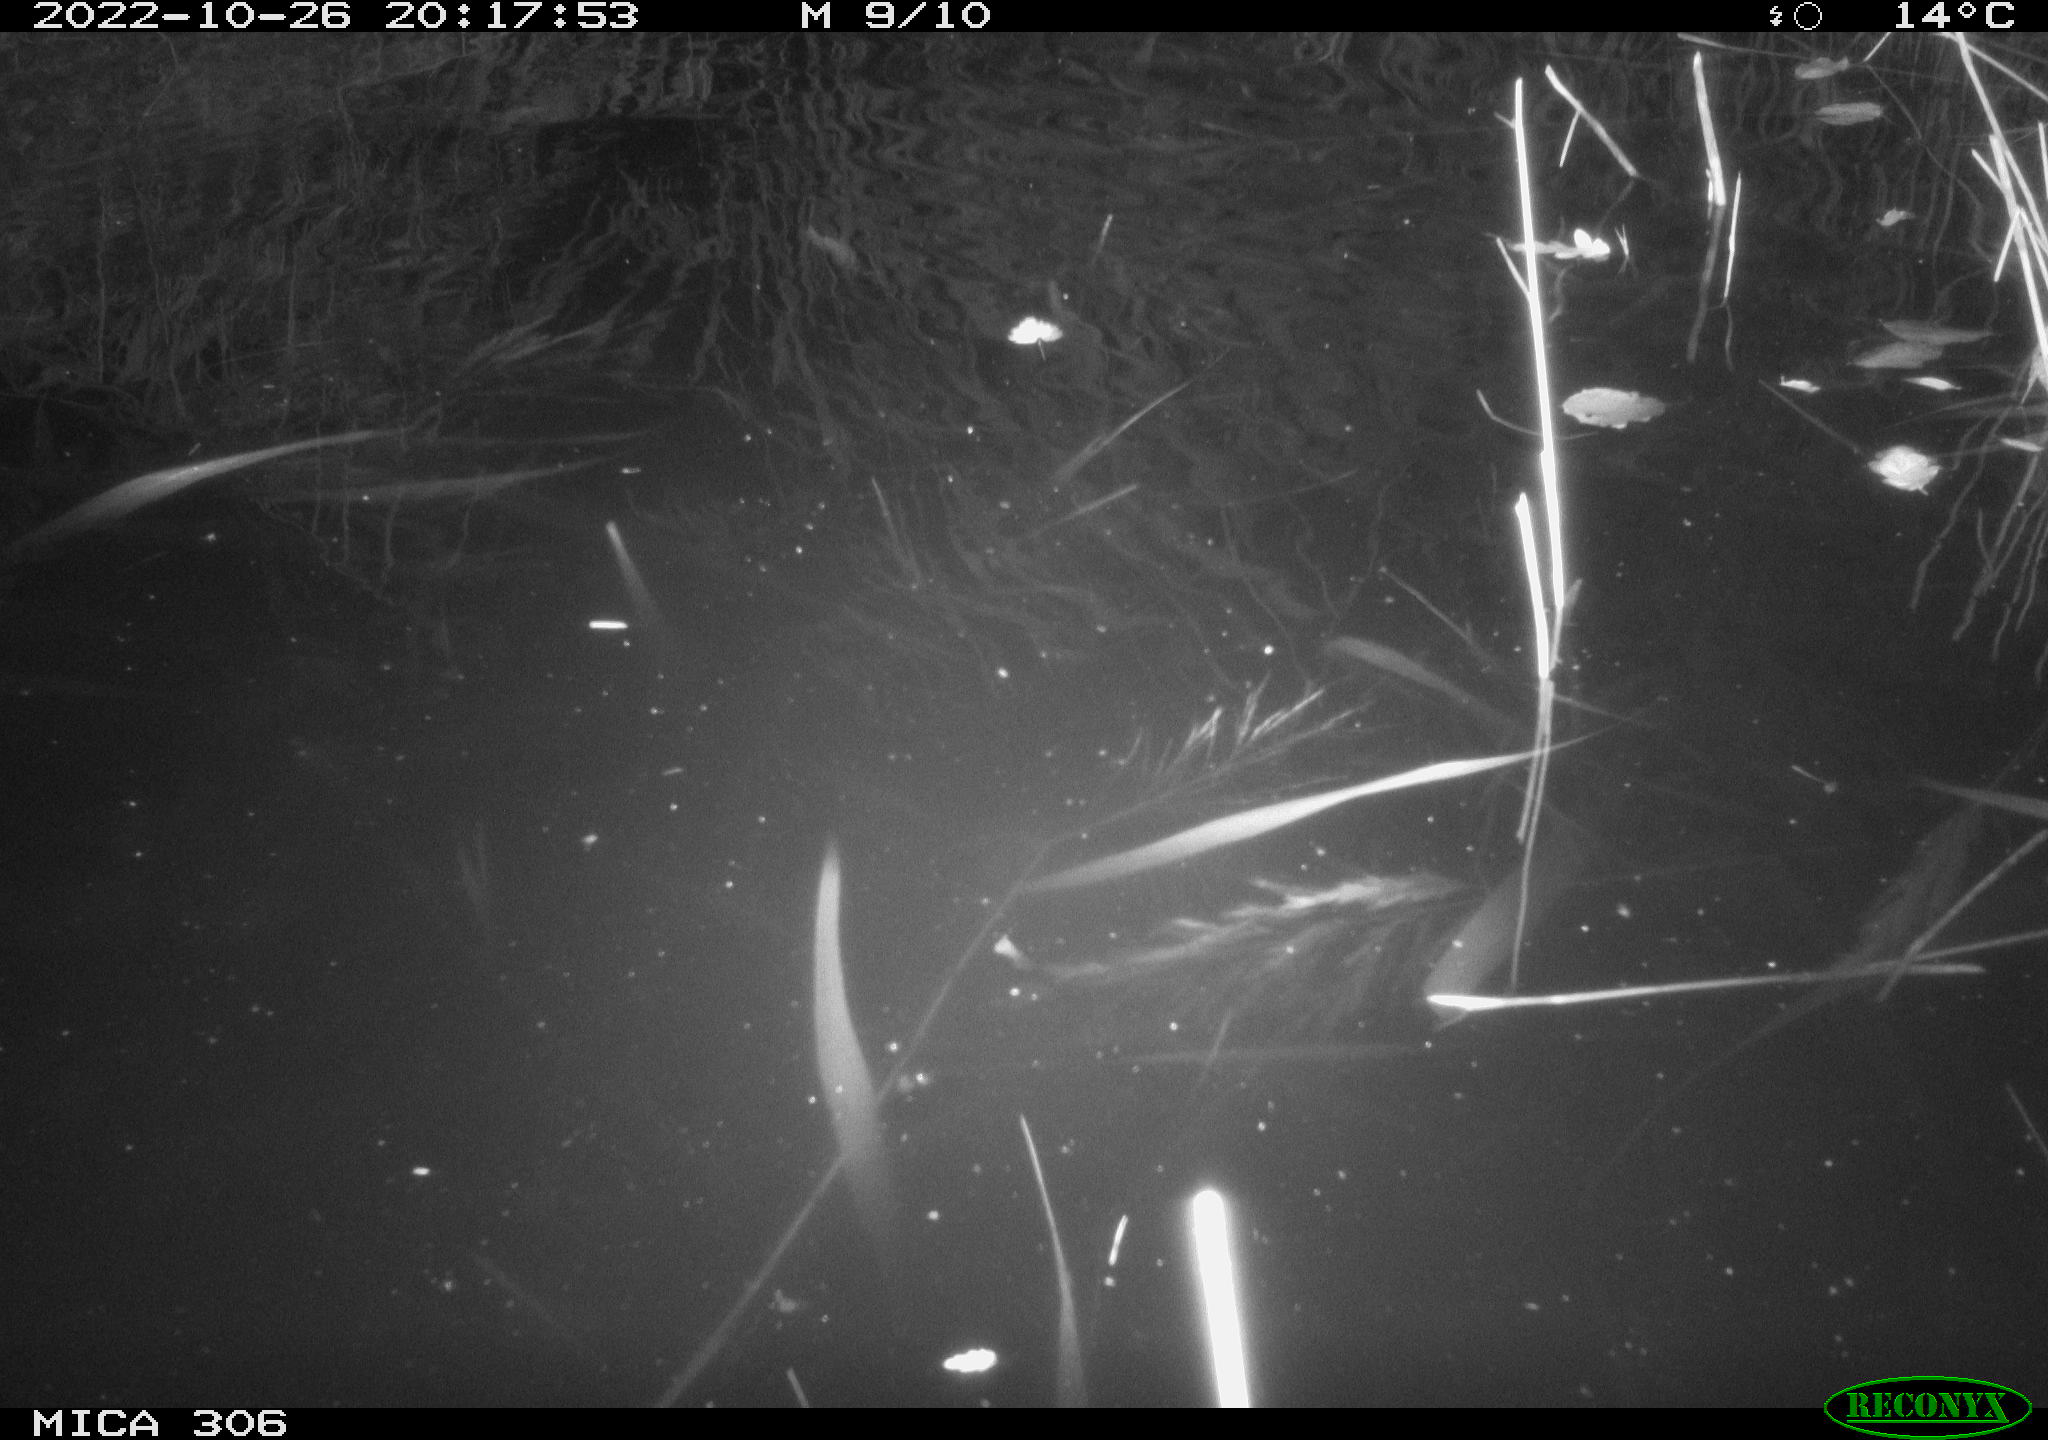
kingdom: Animalia
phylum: Chordata
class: Mammalia
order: Rodentia
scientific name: Rodentia
